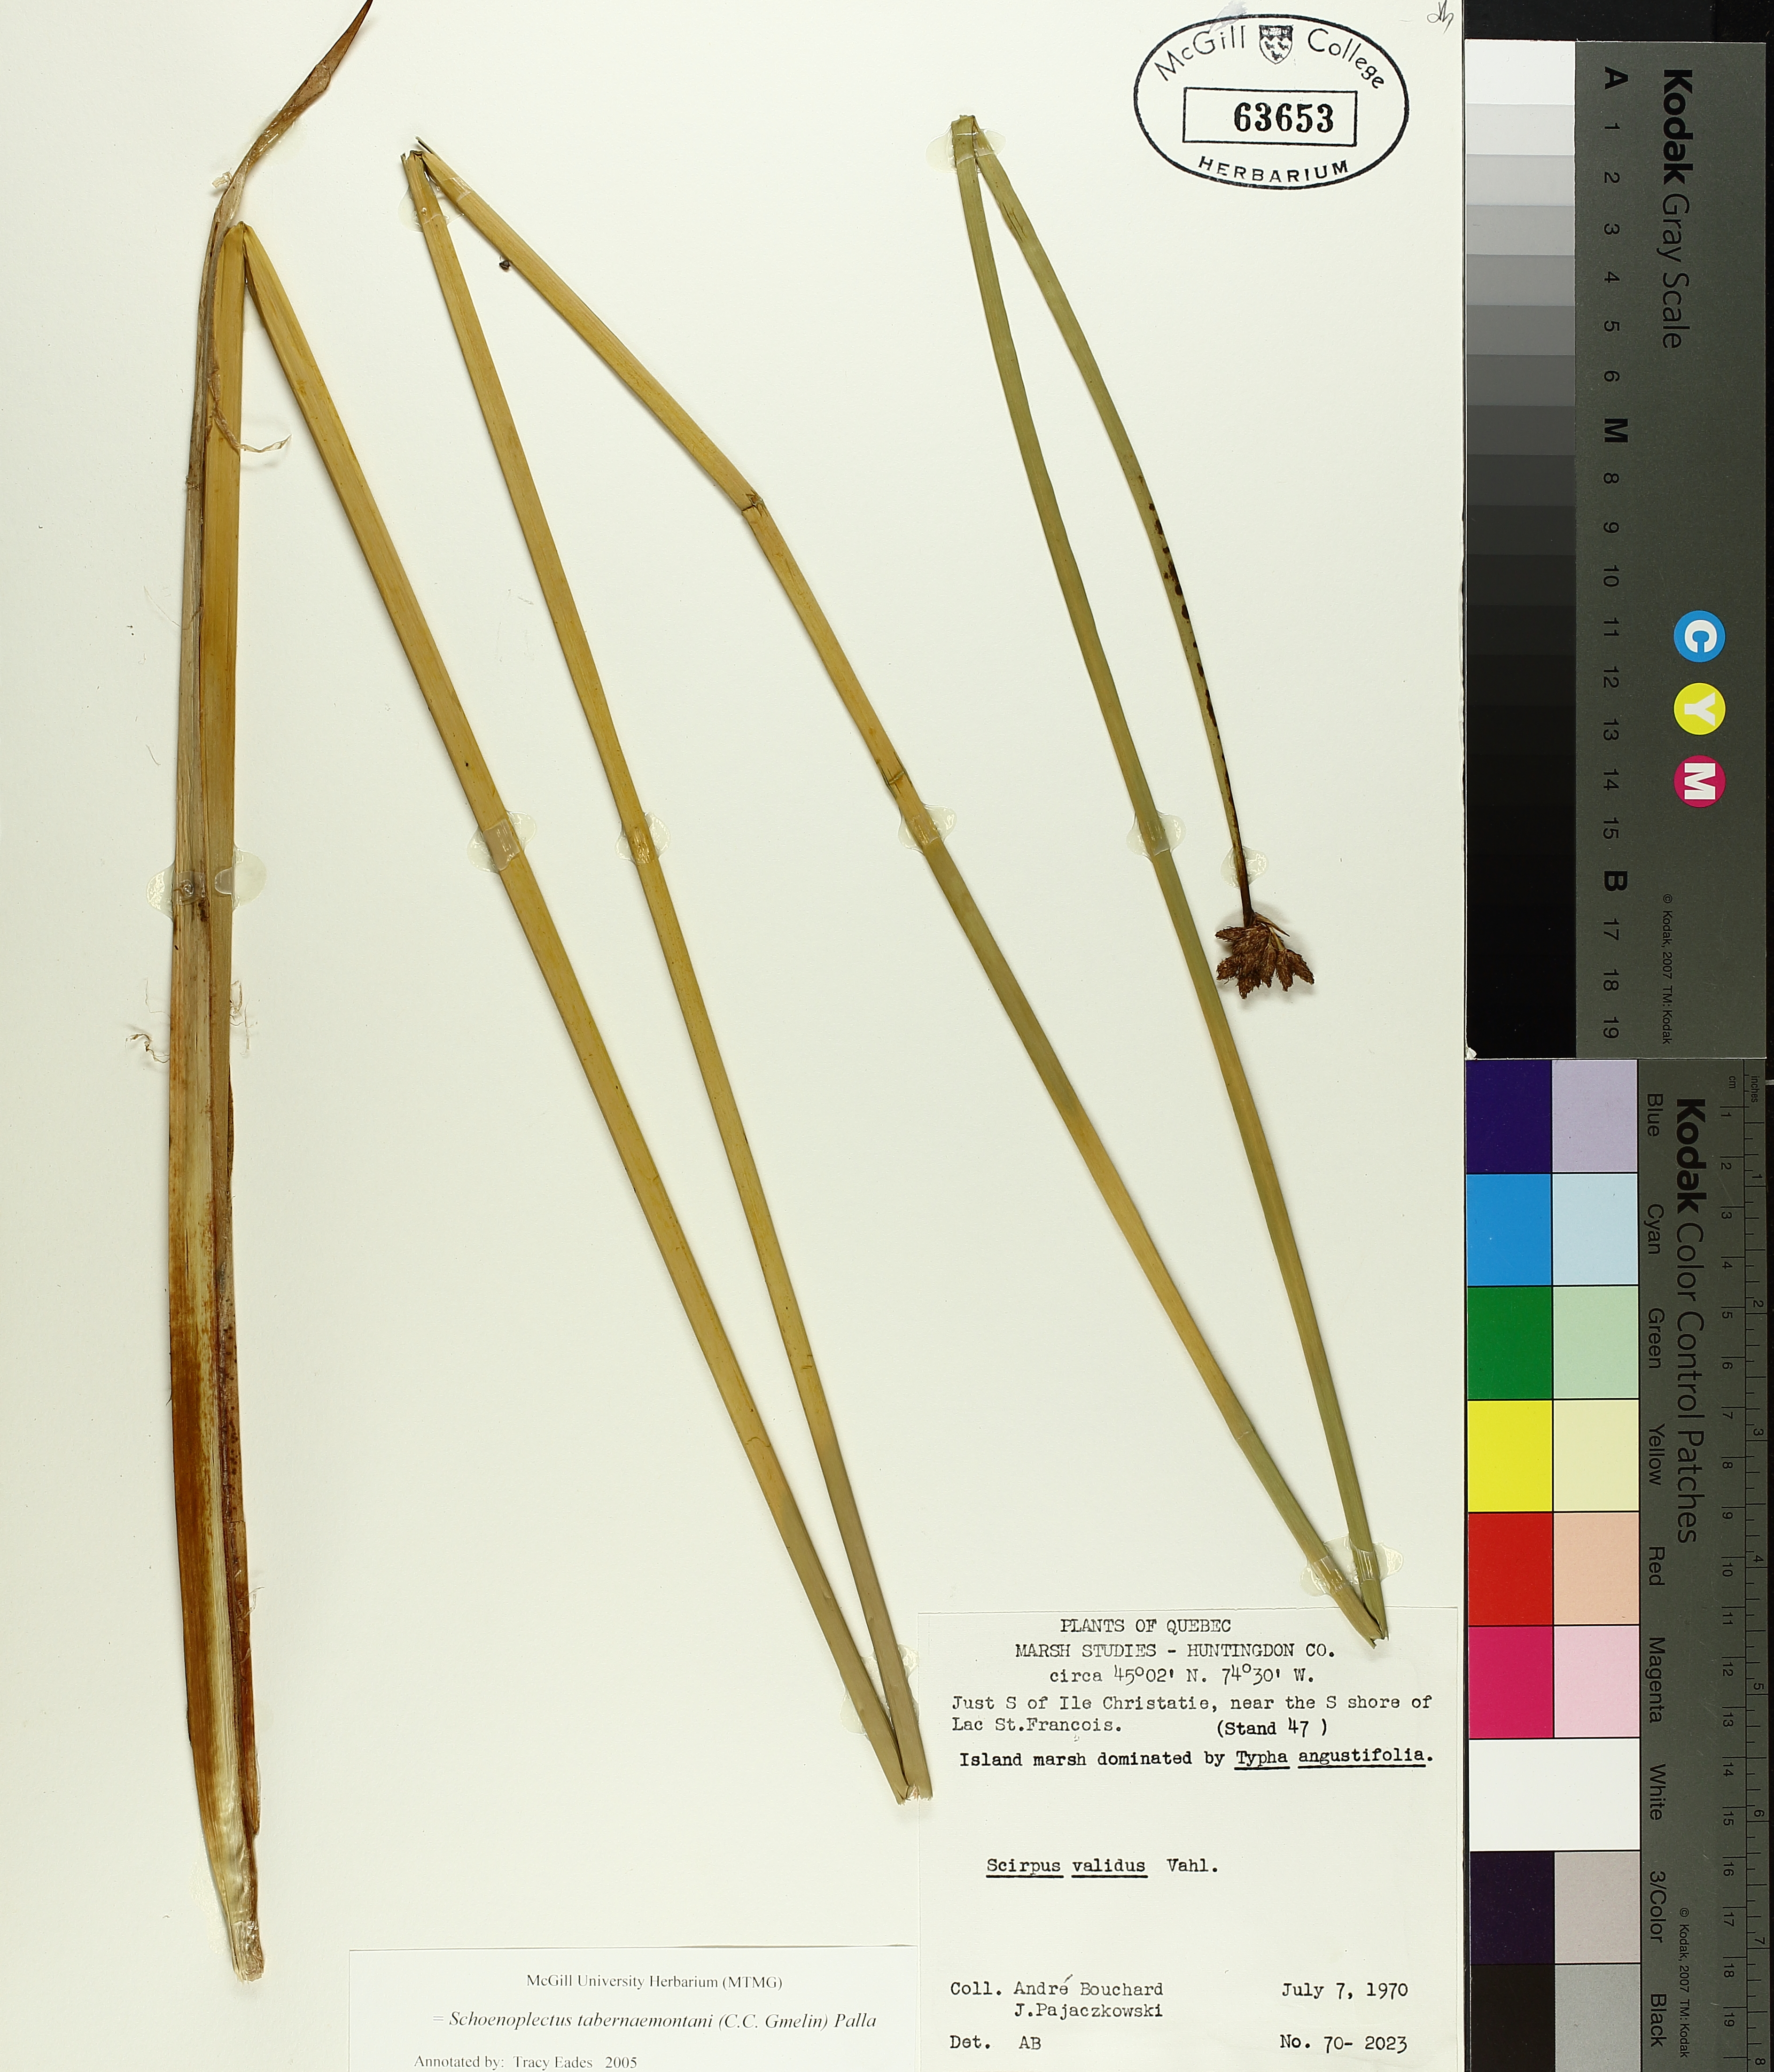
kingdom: Plantae
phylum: Tracheophyta
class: Liliopsida
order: Poales
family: Cyperaceae
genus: Schoenoplectus
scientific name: Schoenoplectus tabernaemontani
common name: Grey club-rush
